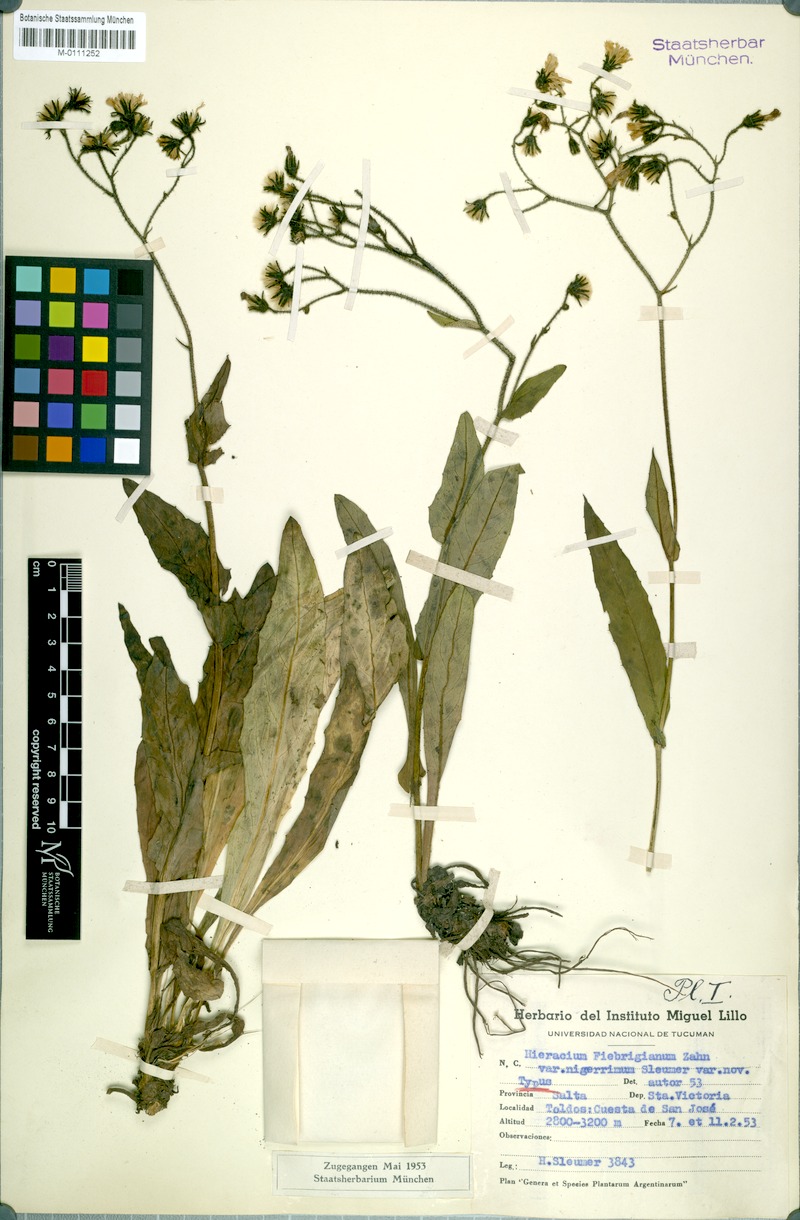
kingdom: Plantae
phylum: Tracheophyta
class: Magnoliopsida
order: Asterales
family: Asteraceae
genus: Hieracium
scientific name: Hieracium fulvipes
